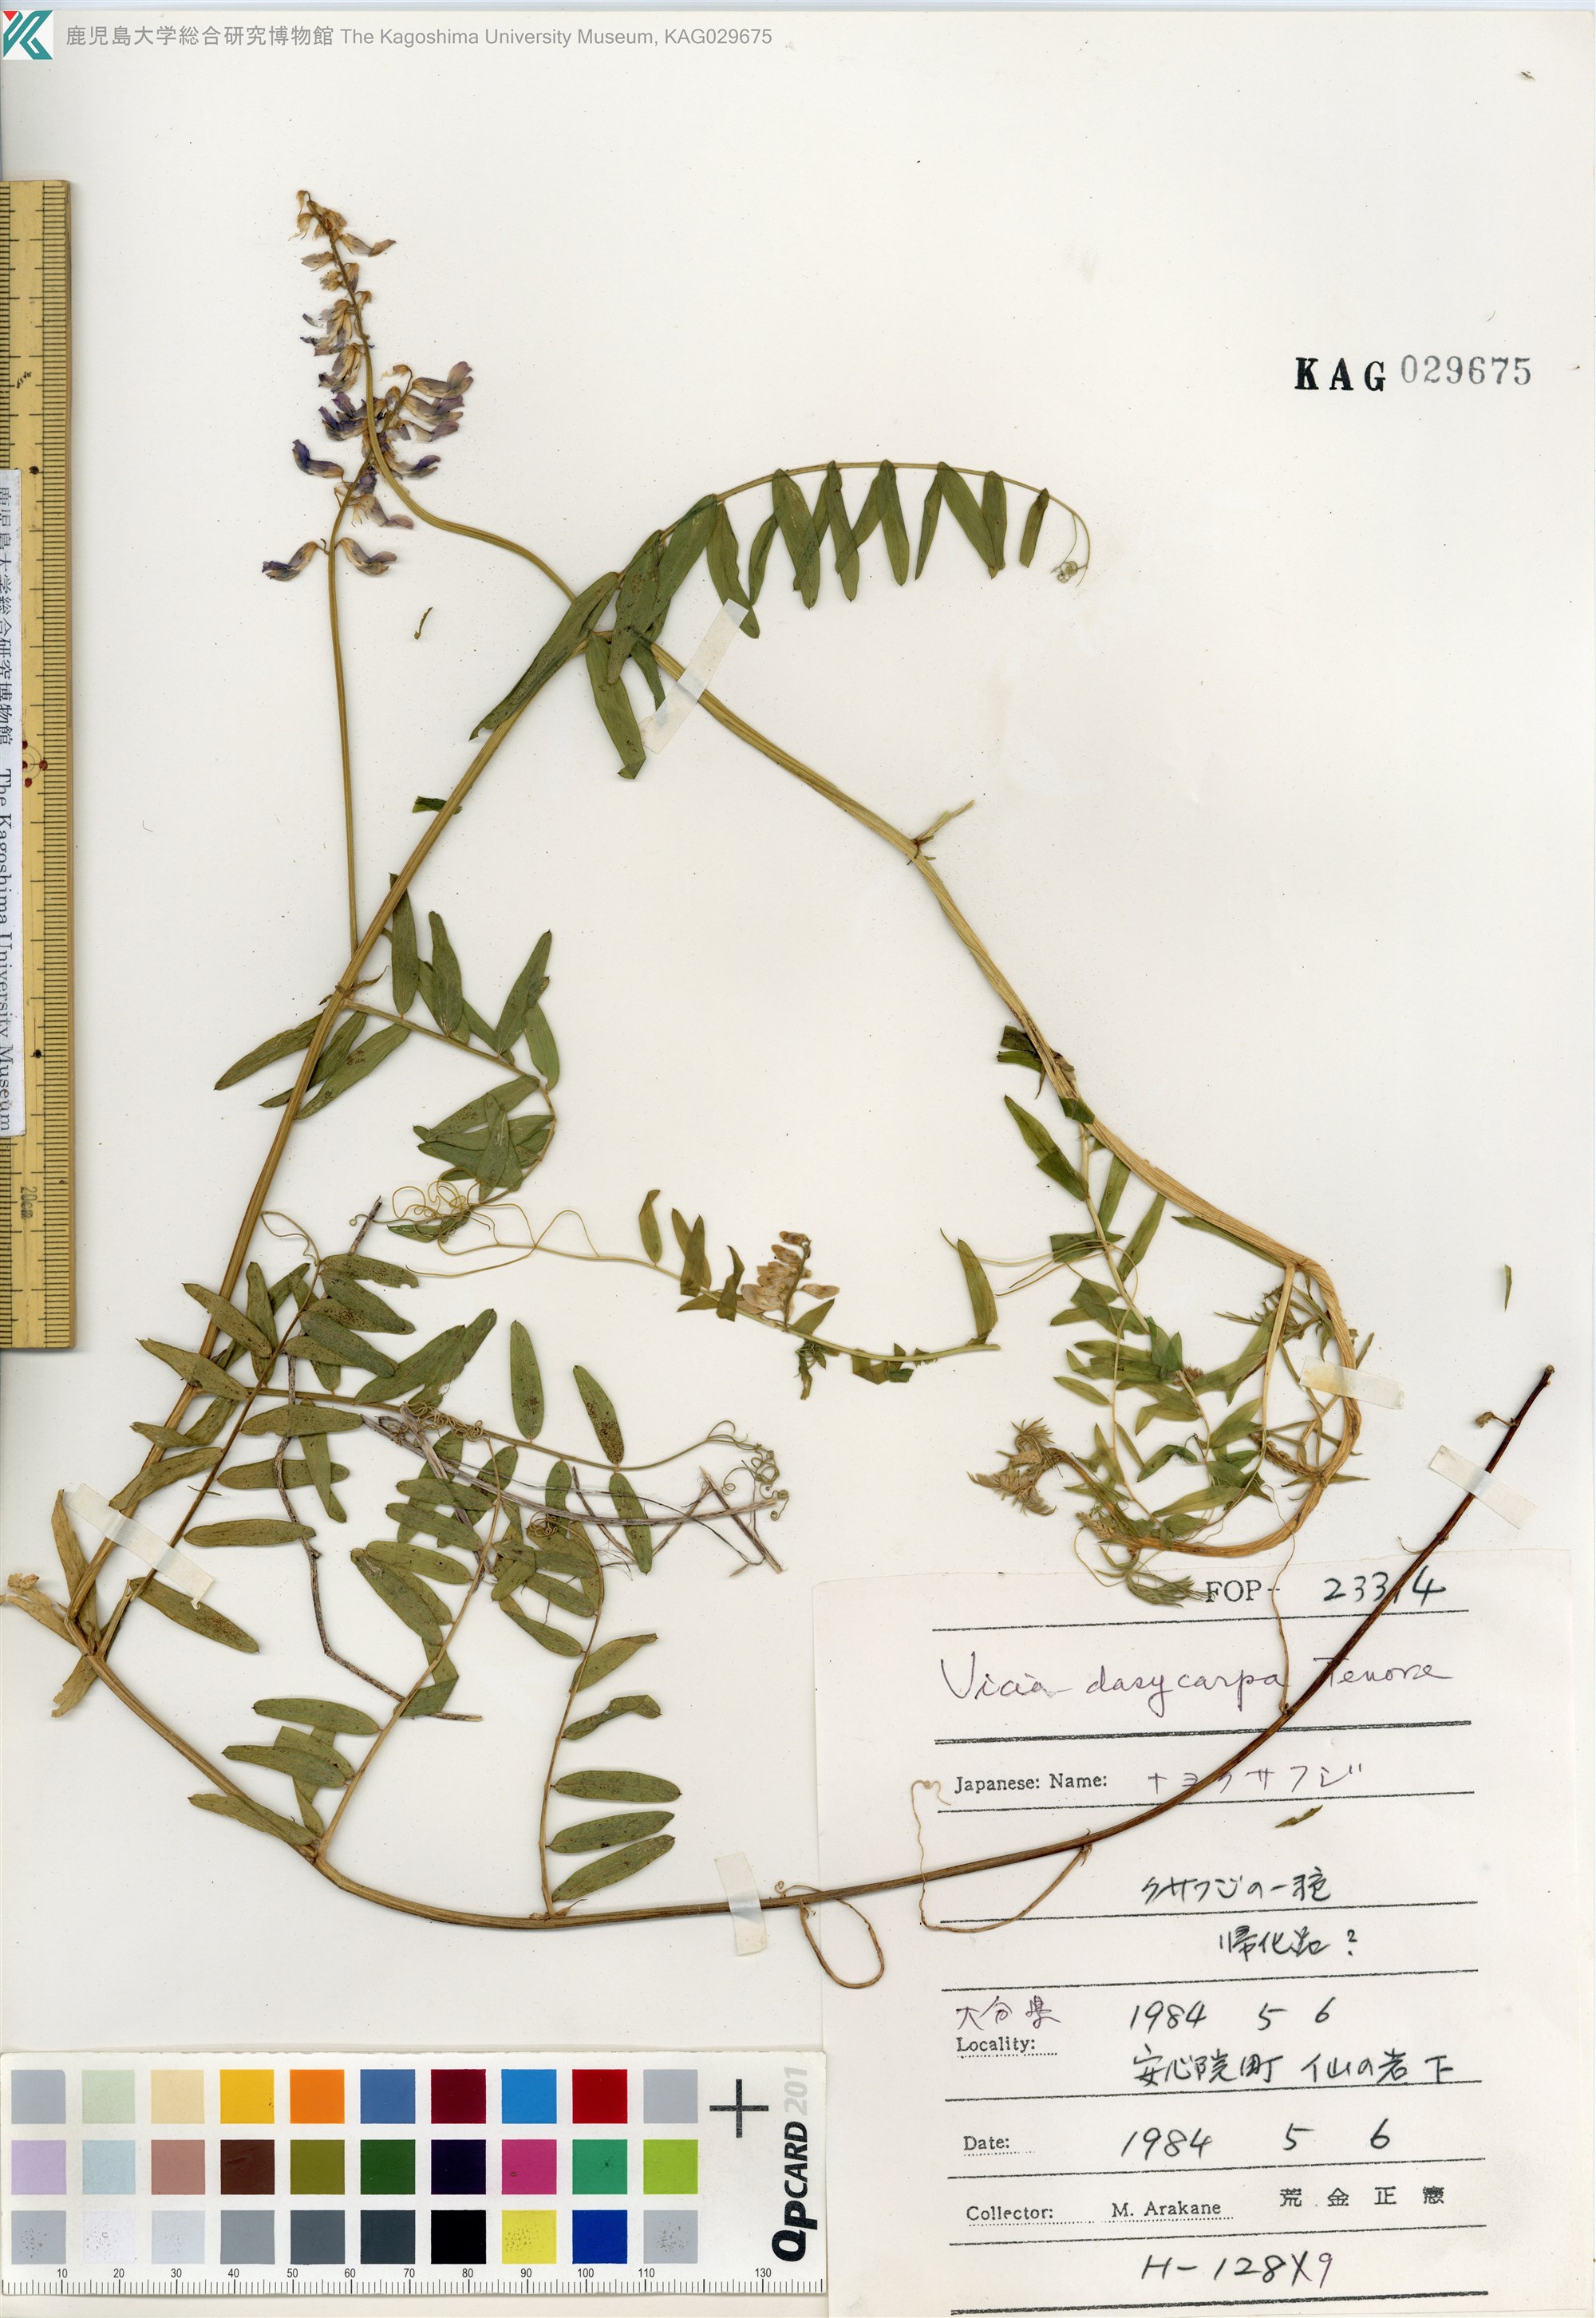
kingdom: Plantae
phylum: Tracheophyta
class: Magnoliopsida
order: Fabales
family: Fabaceae
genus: Vicia
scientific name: Vicia villosa
